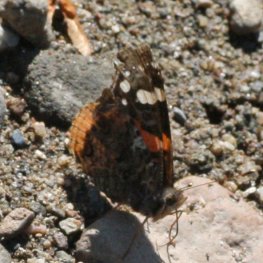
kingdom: Animalia
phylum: Arthropoda
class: Insecta
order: Lepidoptera
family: Nymphalidae
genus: Vanessa
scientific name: Vanessa atalanta
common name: Red Admiral
